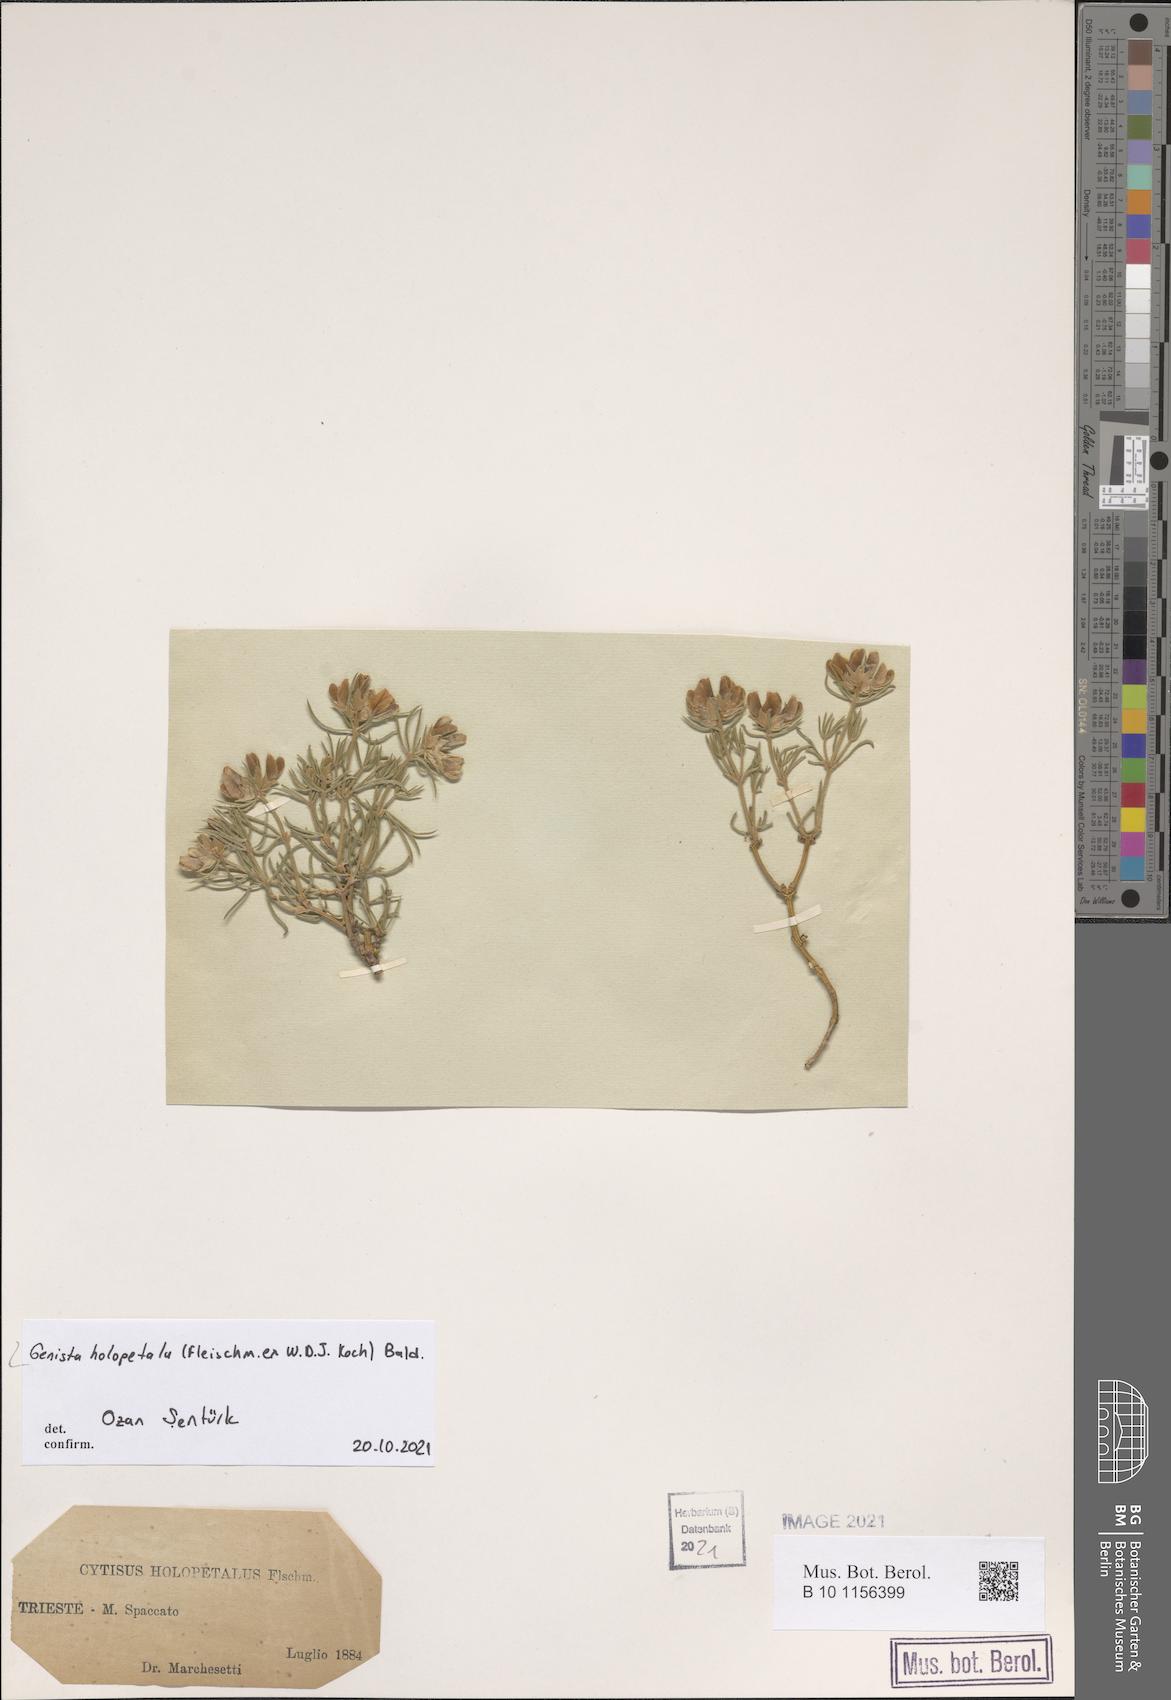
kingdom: Plantae
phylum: Tracheophyta
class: Magnoliopsida
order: Fabales
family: Fabaceae
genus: Genista
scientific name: Genista holopetala
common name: Entire-petalled gorse
